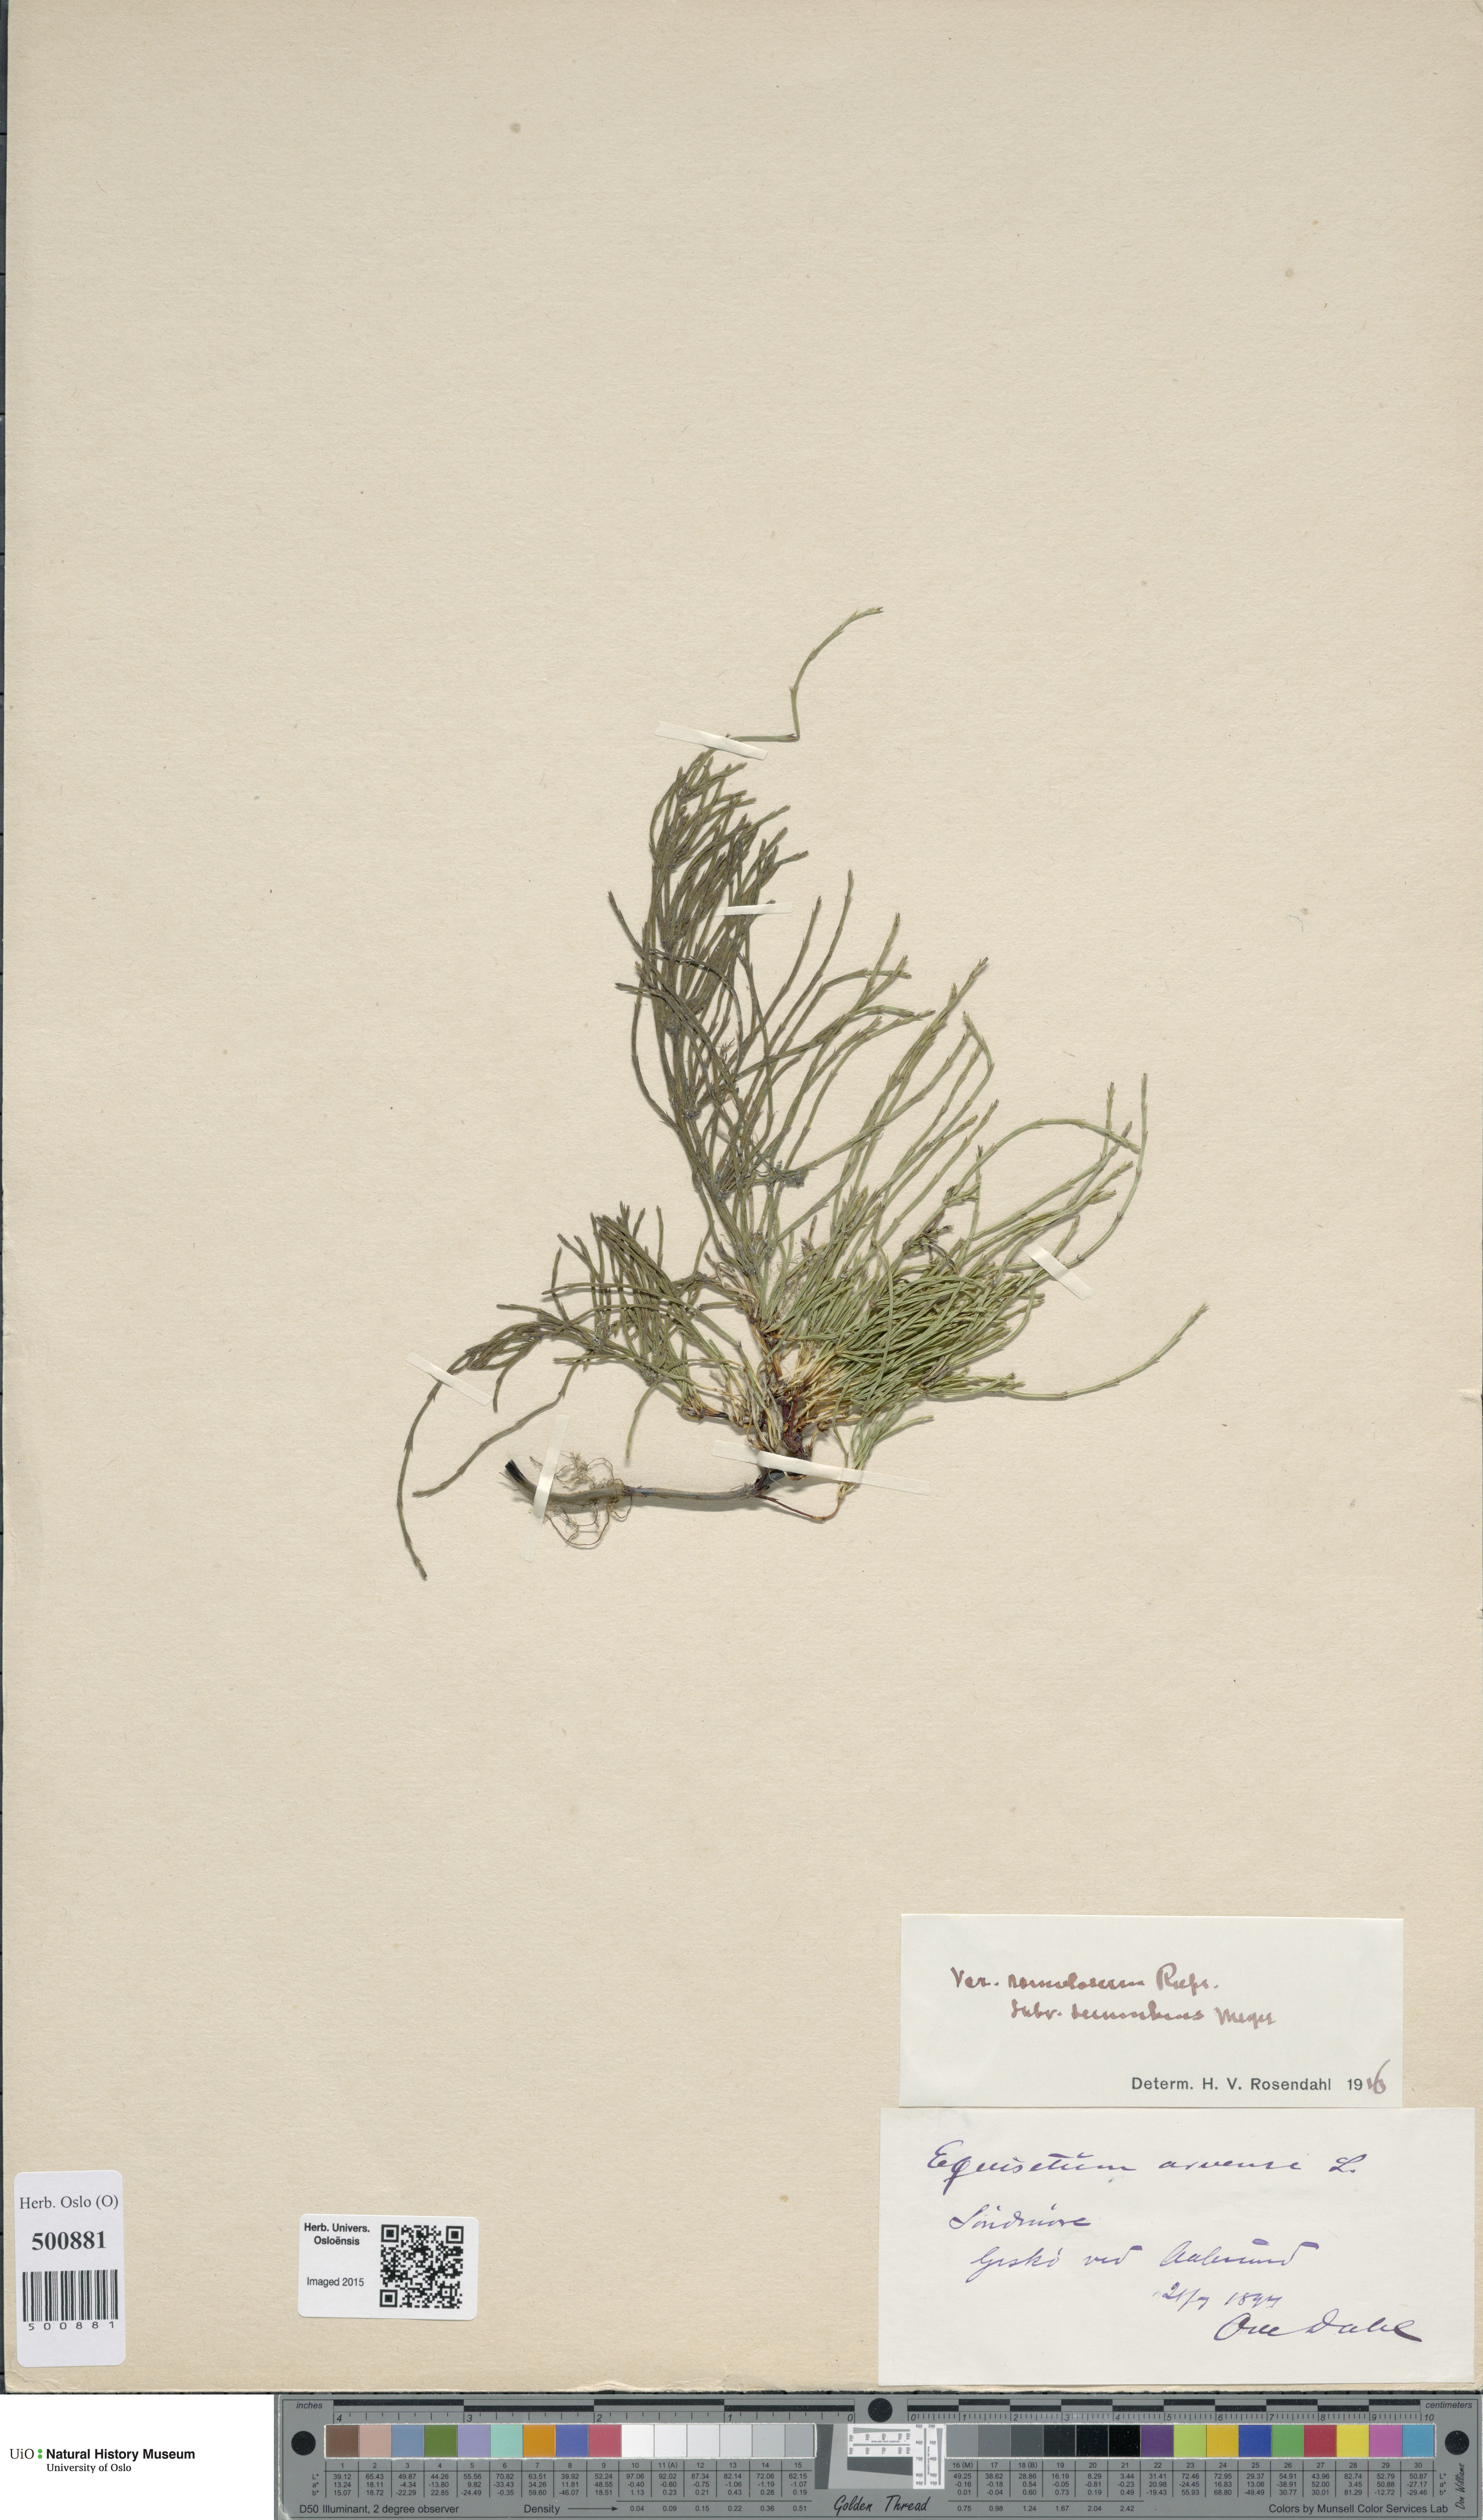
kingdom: Plantae
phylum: Tracheophyta
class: Polypodiopsida
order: Equisetales
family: Equisetaceae
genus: Equisetum
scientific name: Equisetum arvense
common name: Field horsetail
